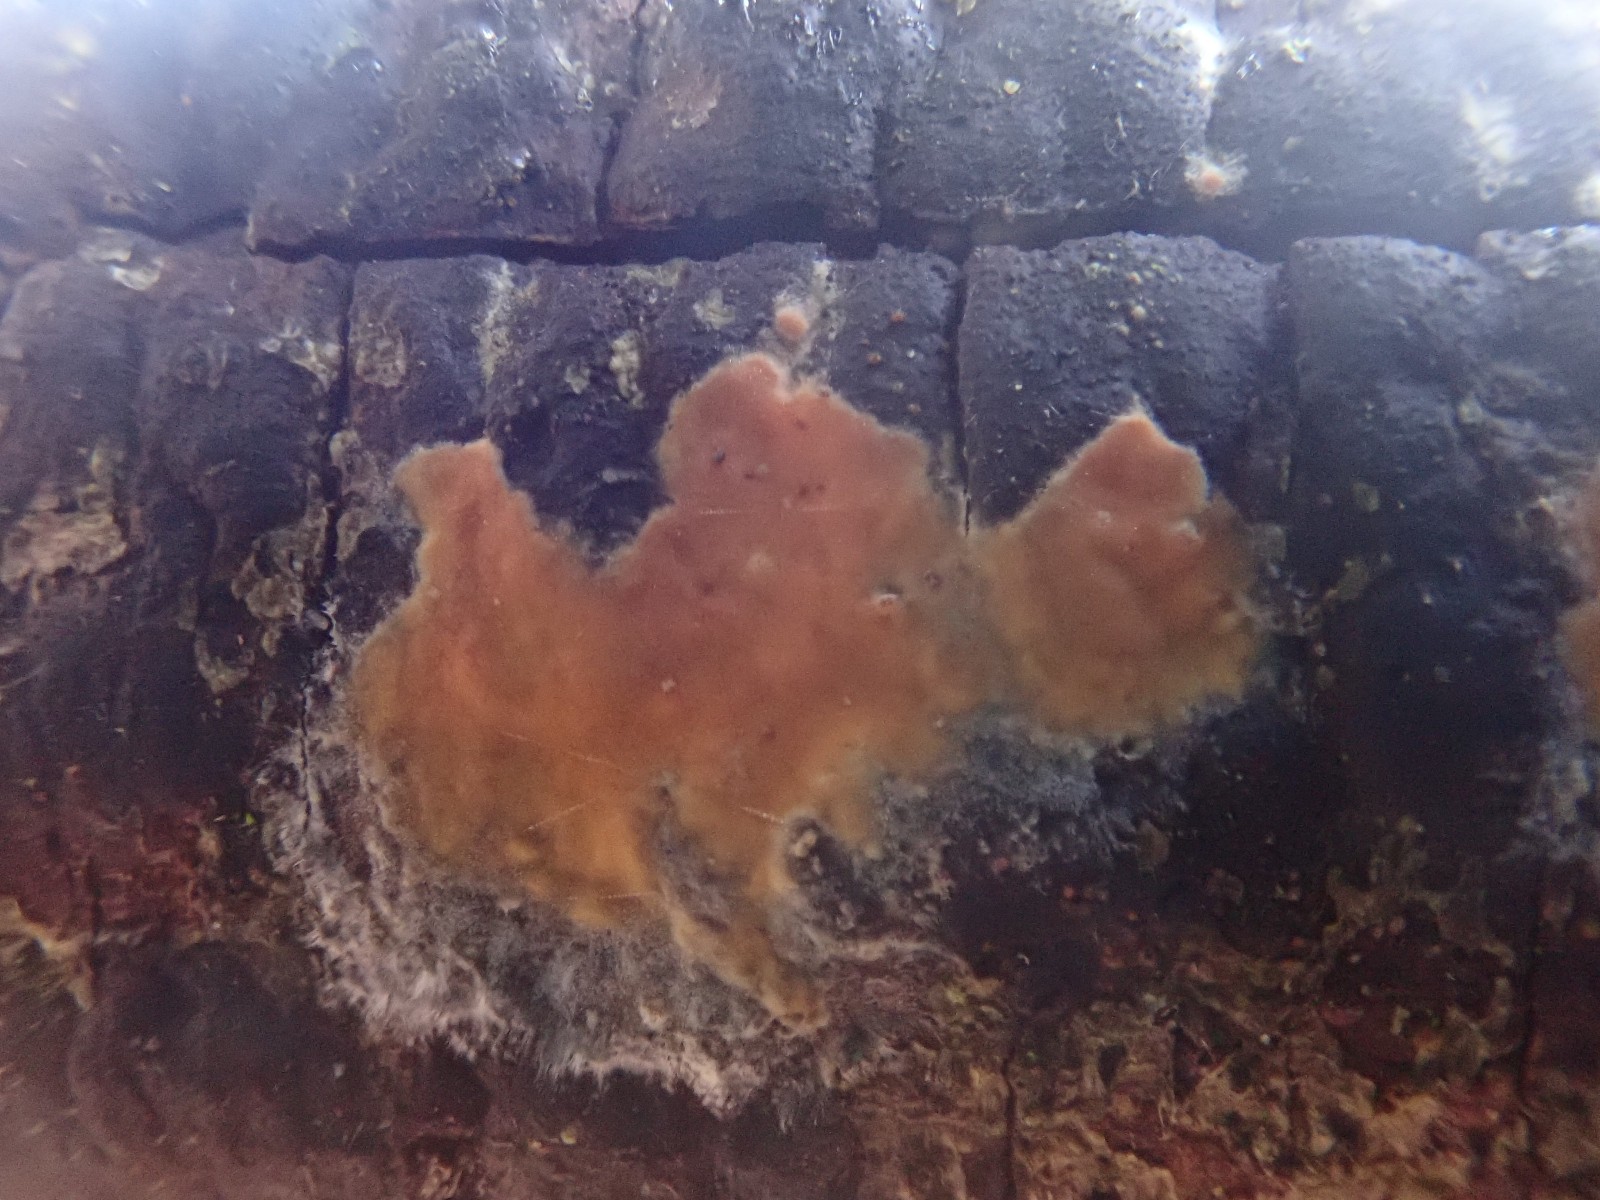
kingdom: Fungi
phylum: Basidiomycota
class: Agaricomycetes
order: Russulales
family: Peniophoraceae
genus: Peniophora
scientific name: Peniophora incarnata
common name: laksefarvet voksskind
